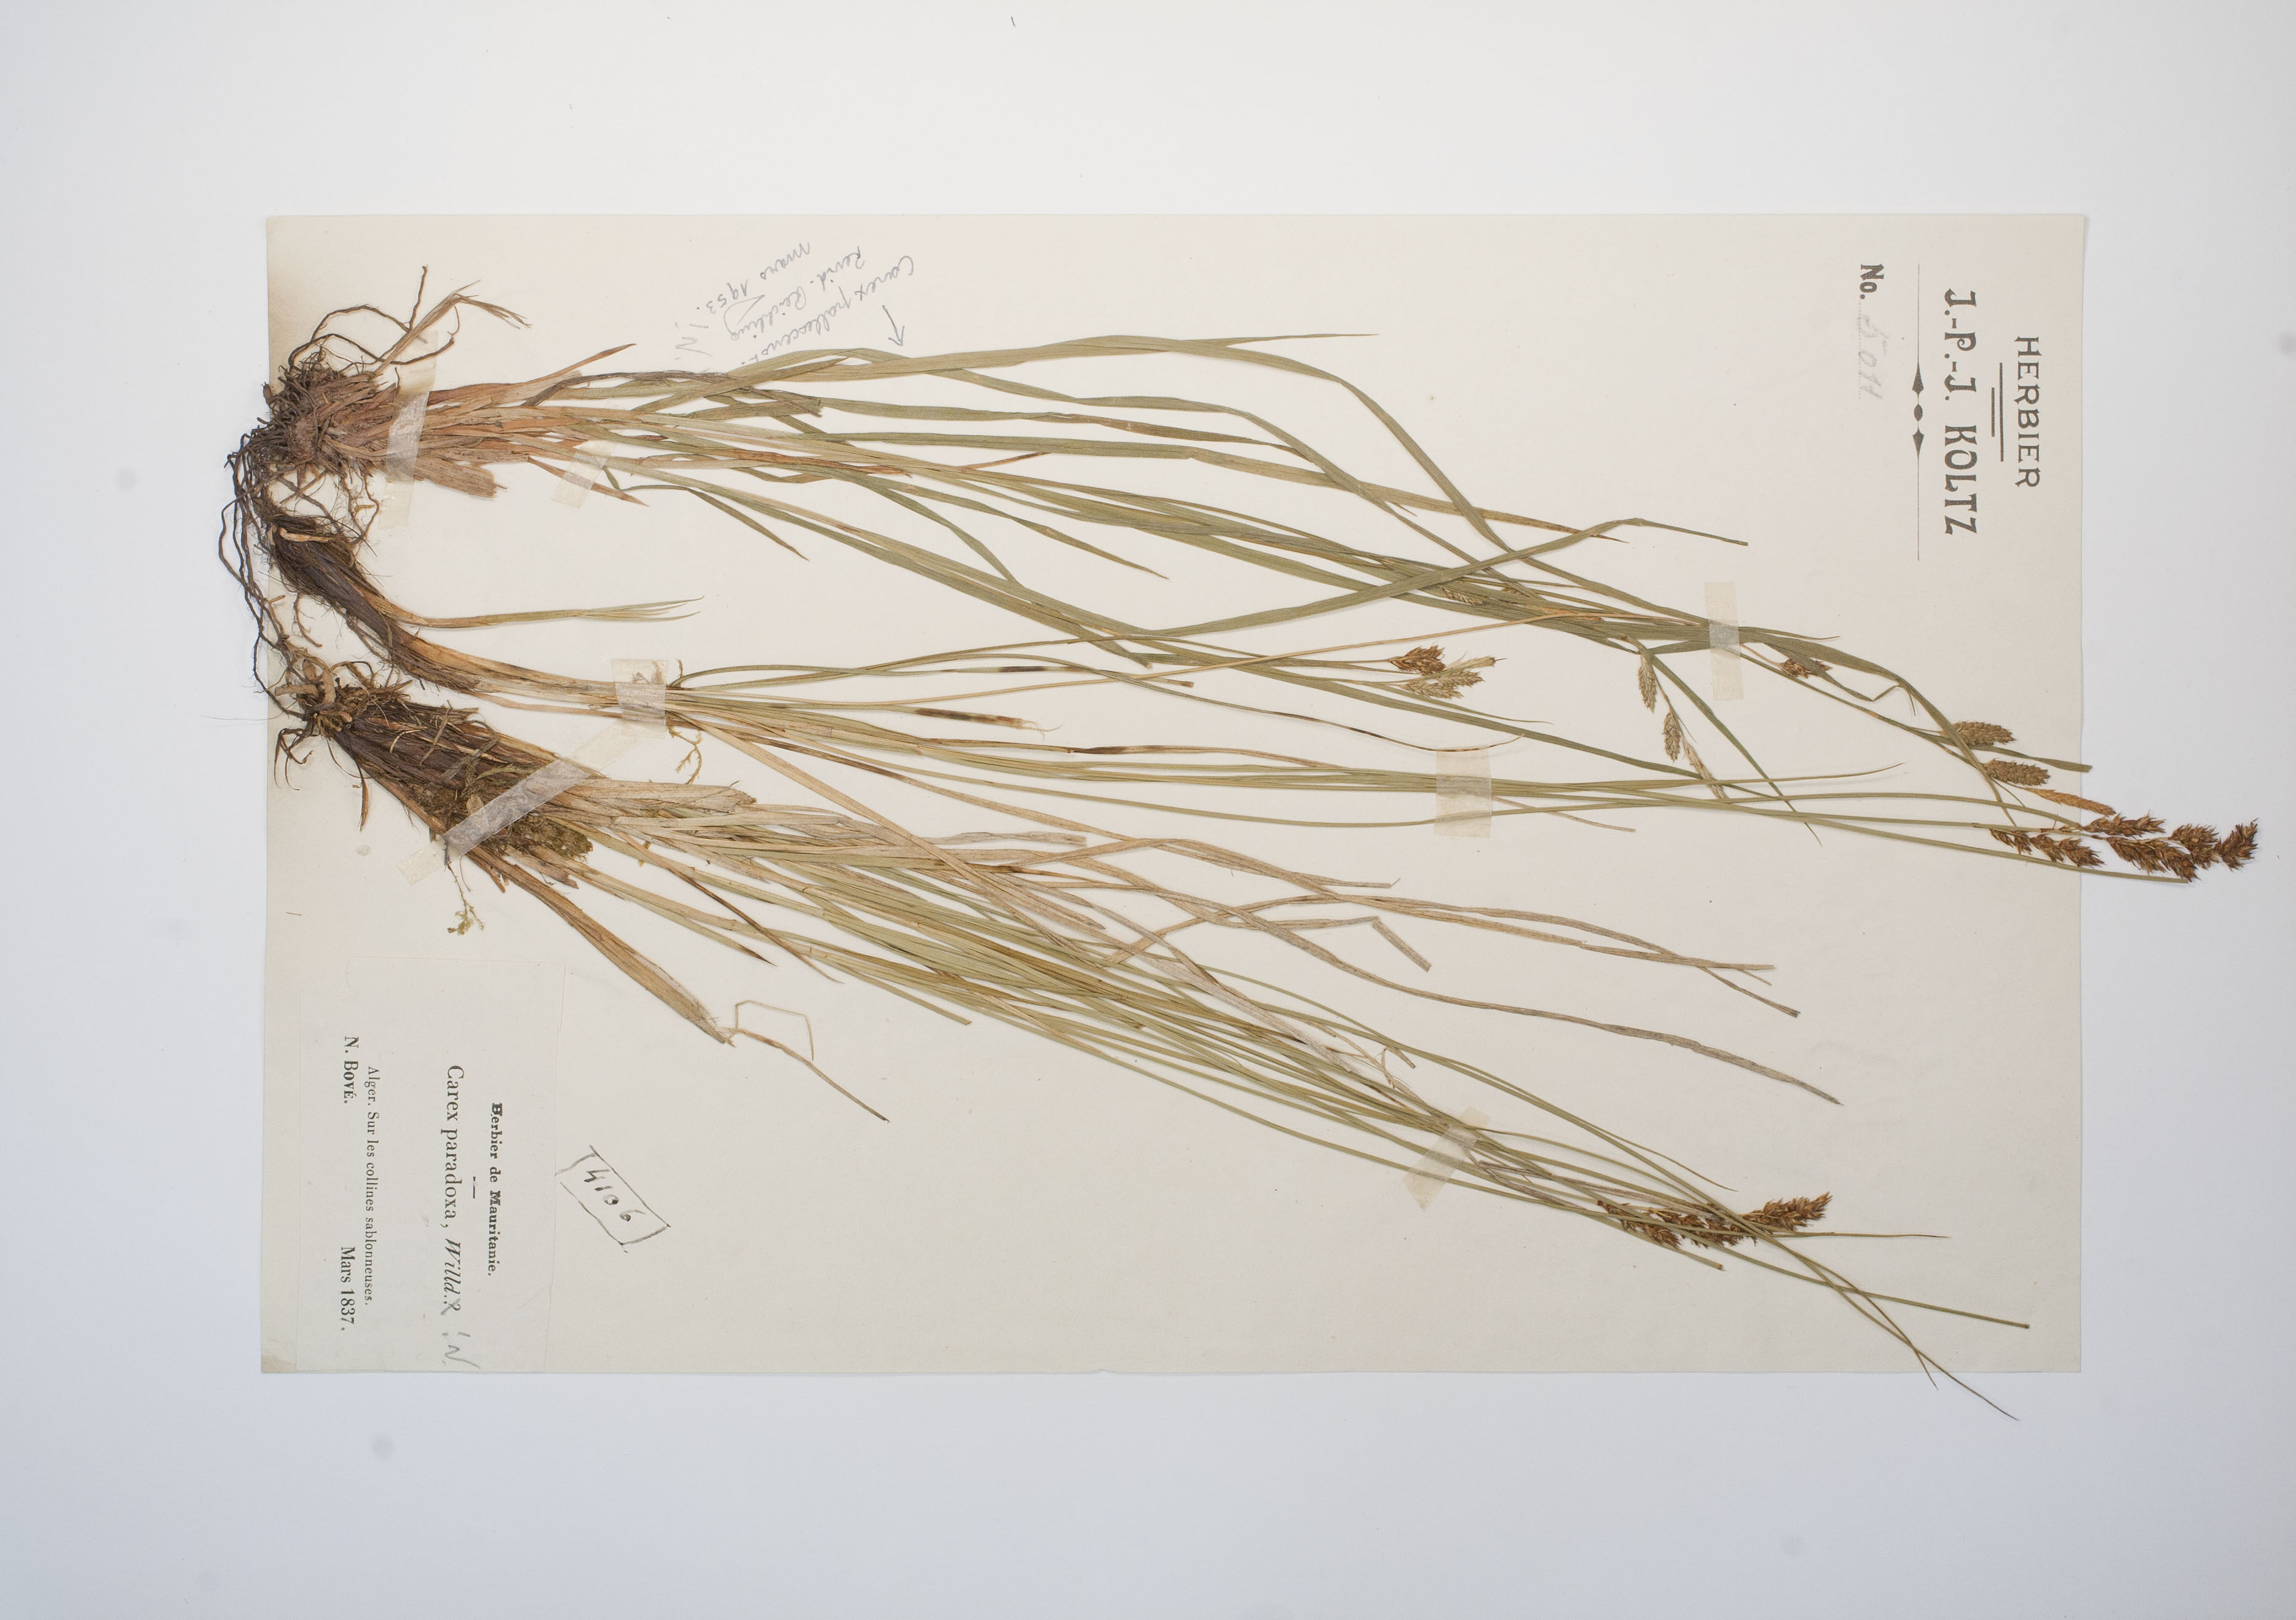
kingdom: Plantae
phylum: Tracheophyta
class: Liliopsida
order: Poales
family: Cyperaceae
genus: Carex
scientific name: Carex appropinquata
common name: Fibrous tussock-sedge
